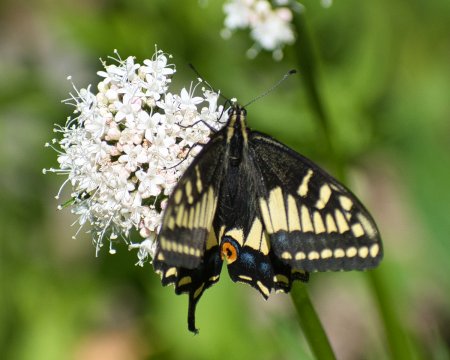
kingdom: Animalia
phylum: Arthropoda
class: Insecta
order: Lepidoptera
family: Papilionidae
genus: Papilio
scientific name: Papilio zelicaon
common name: Anise Swallowtail
